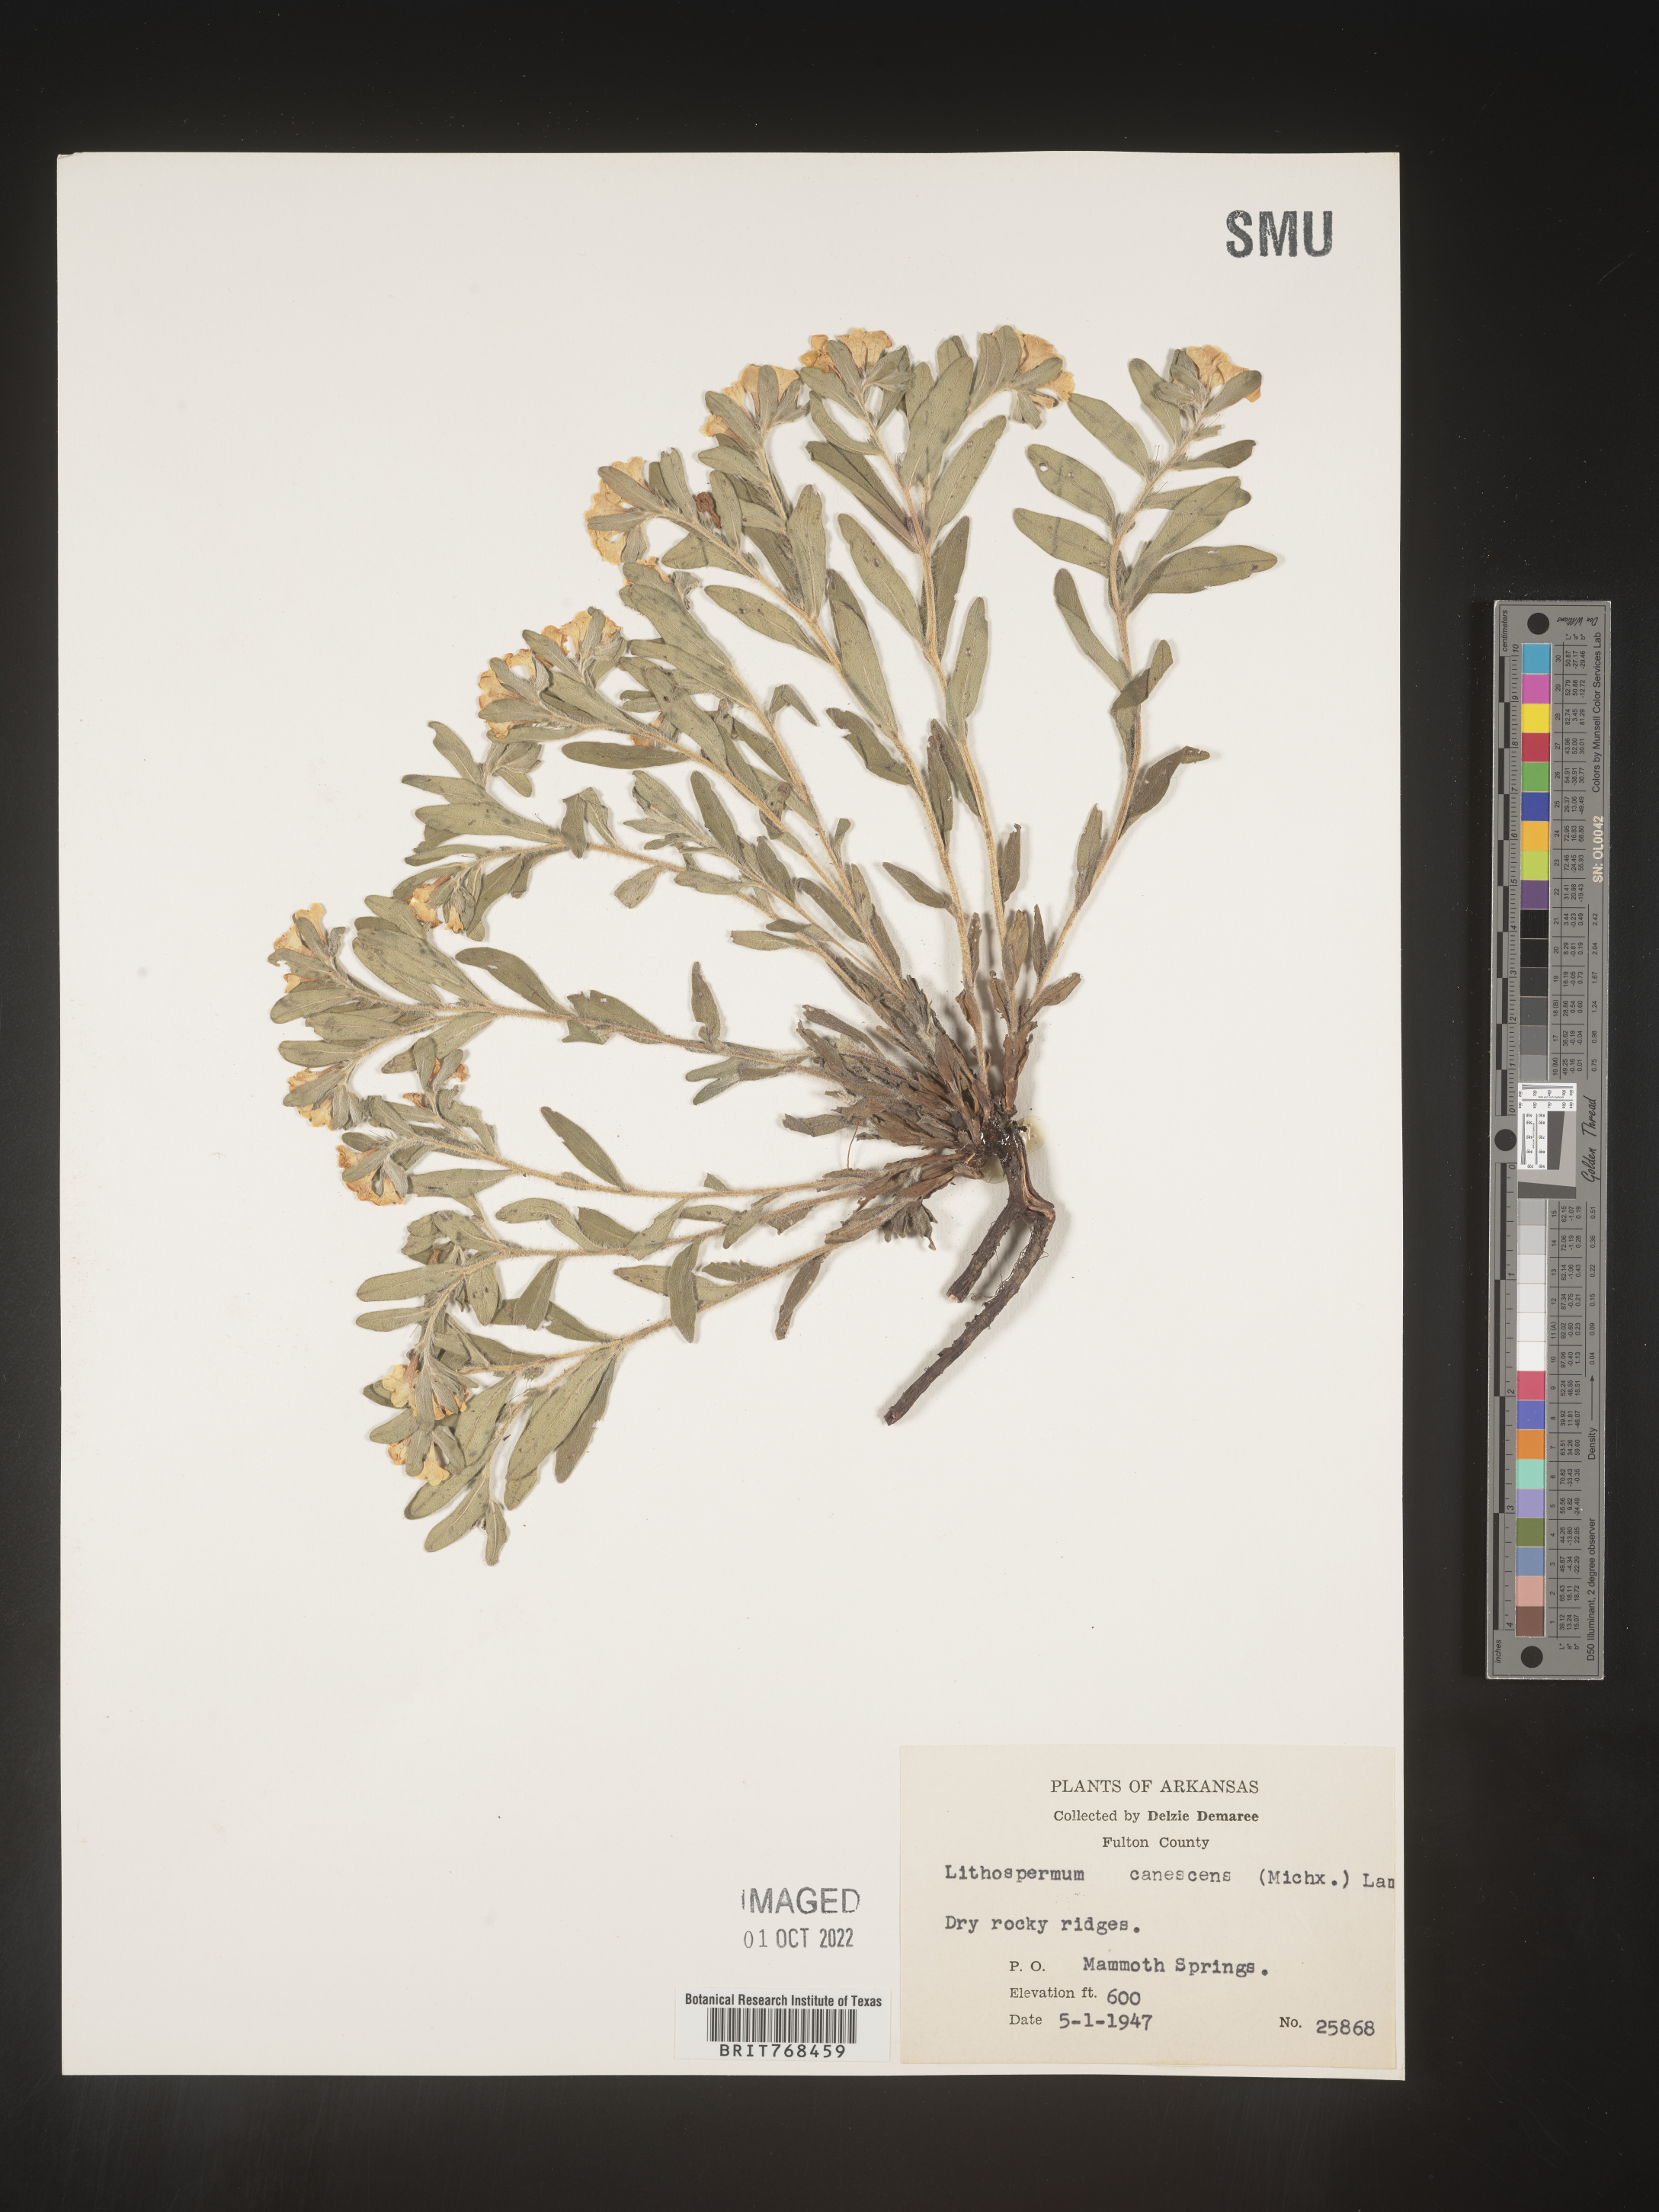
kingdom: Plantae
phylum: Tracheophyta
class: Magnoliopsida
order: Boraginales
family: Boraginaceae
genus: Lithospermum
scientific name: Lithospermum canescens
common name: Hoary puccoon
